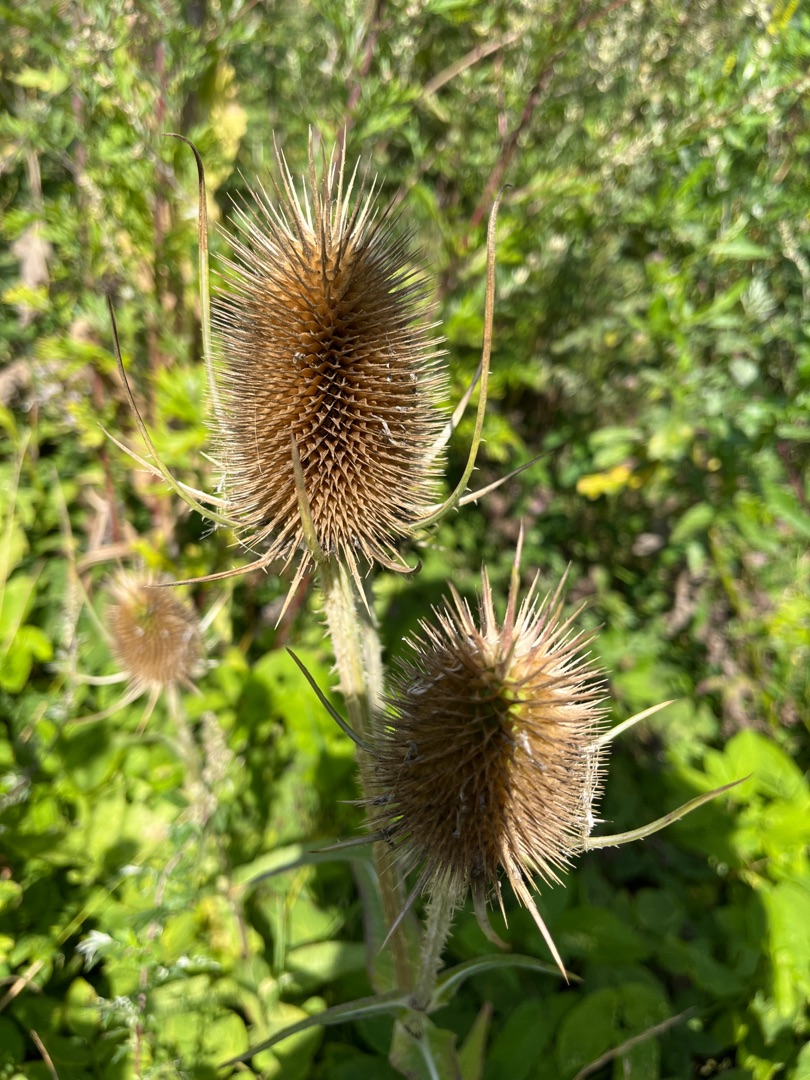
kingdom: Plantae
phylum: Tracheophyta
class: Magnoliopsida
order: Dipsacales
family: Caprifoliaceae
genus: Dipsacus
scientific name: Dipsacus fullonum
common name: Gærde-kartebolle
